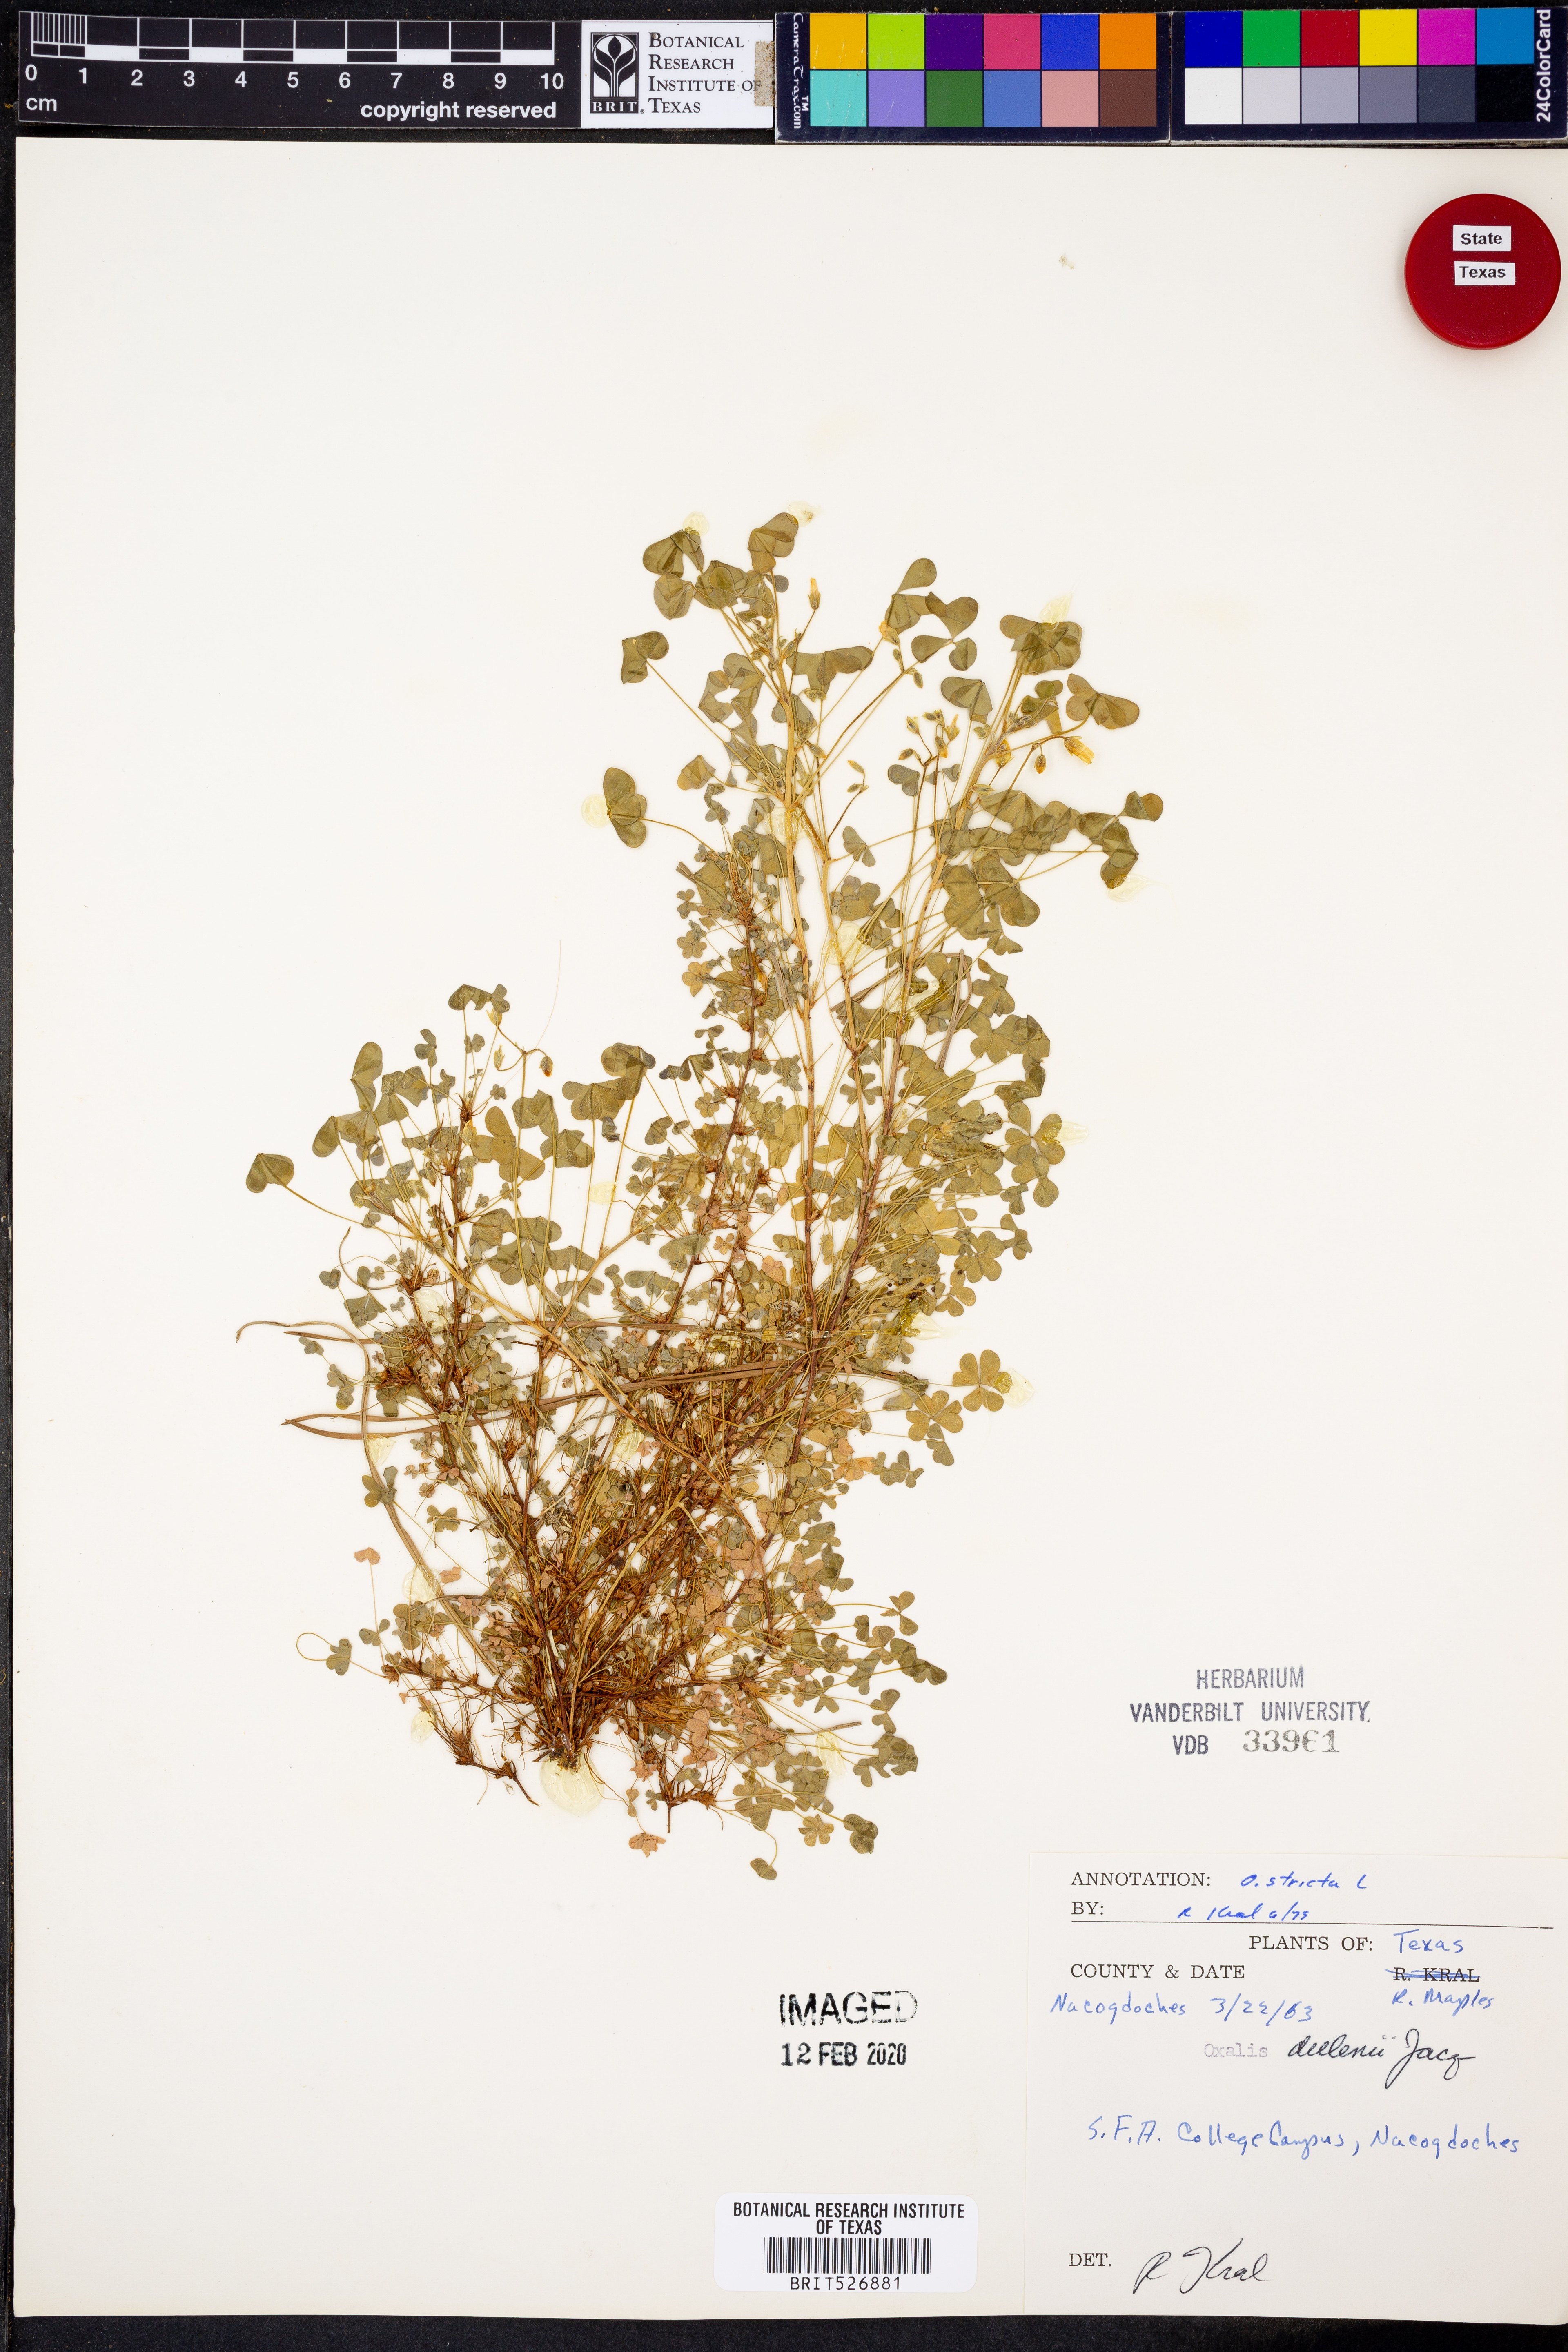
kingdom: Plantae
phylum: Tracheophyta
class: Magnoliopsida
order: Oxalidales
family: Oxalidaceae
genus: Oxalis
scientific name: Oxalis stricta
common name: Upright yellow-sorrel
